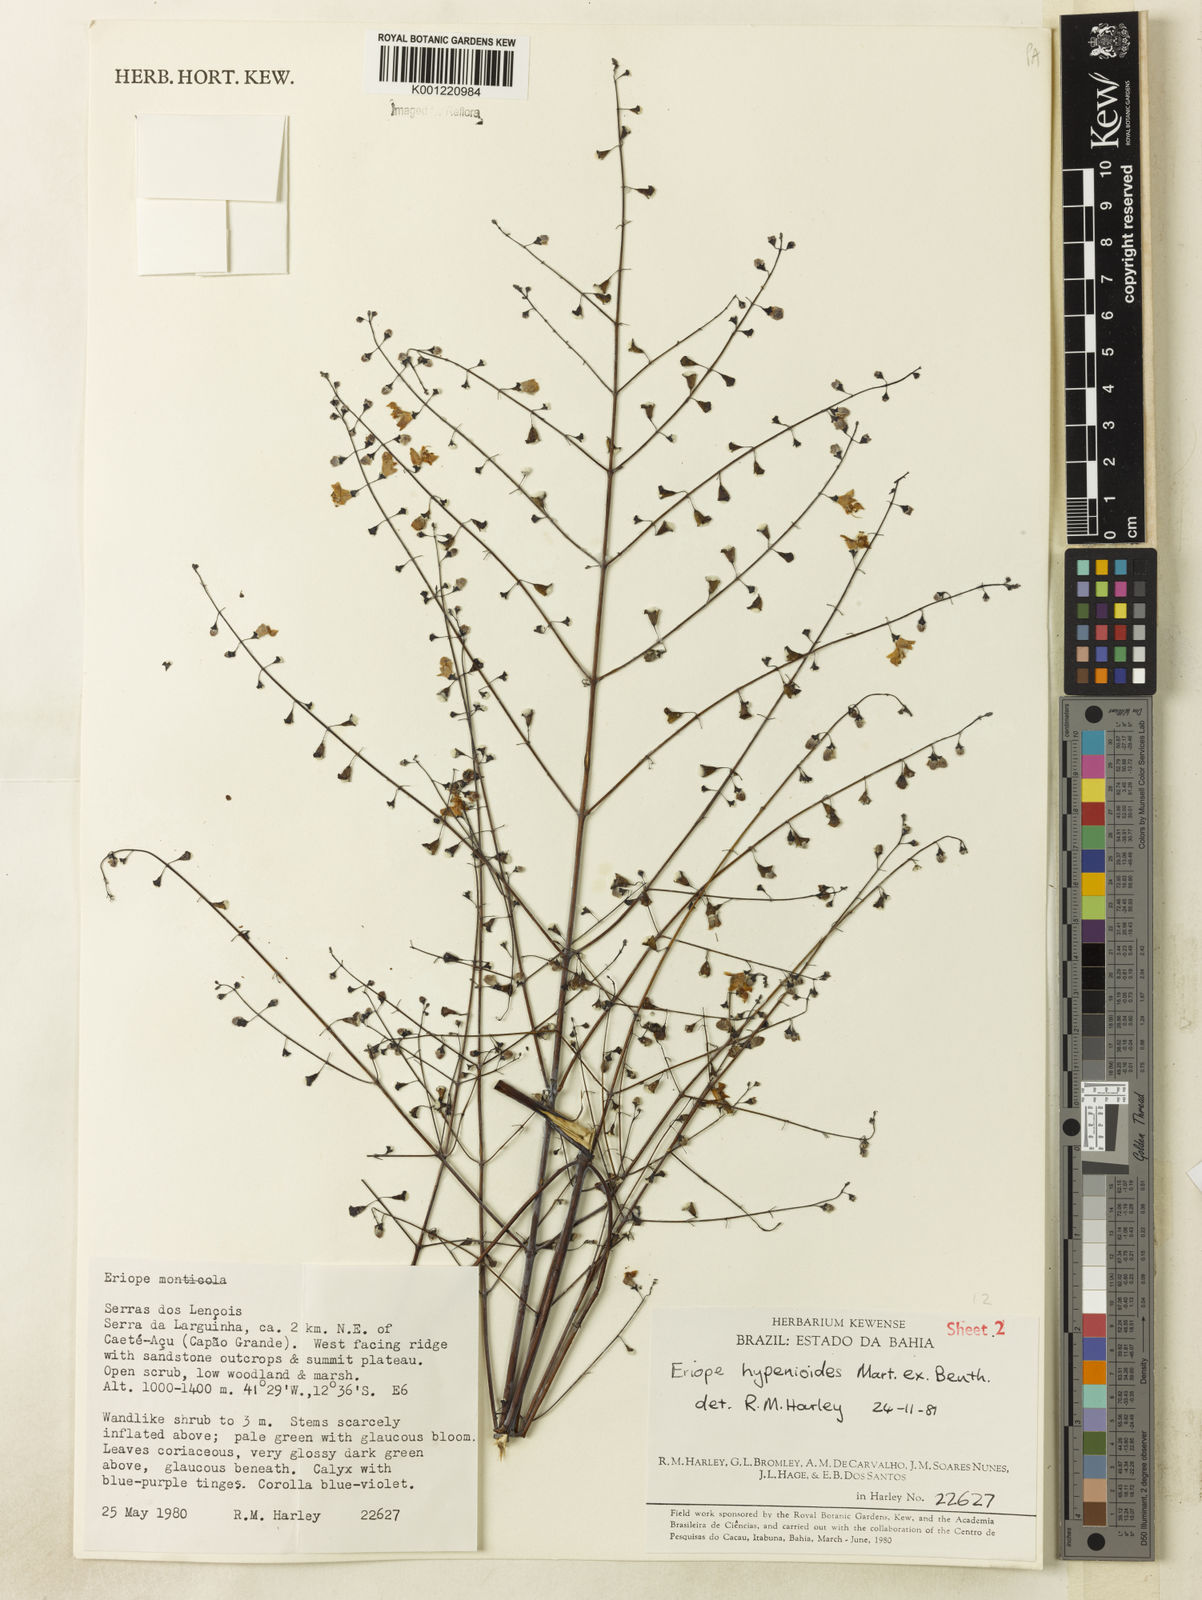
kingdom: Plantae
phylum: Tracheophyta
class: Magnoliopsida
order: Lamiales
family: Lamiaceae
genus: Eriope
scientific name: Eriope hypenioides
